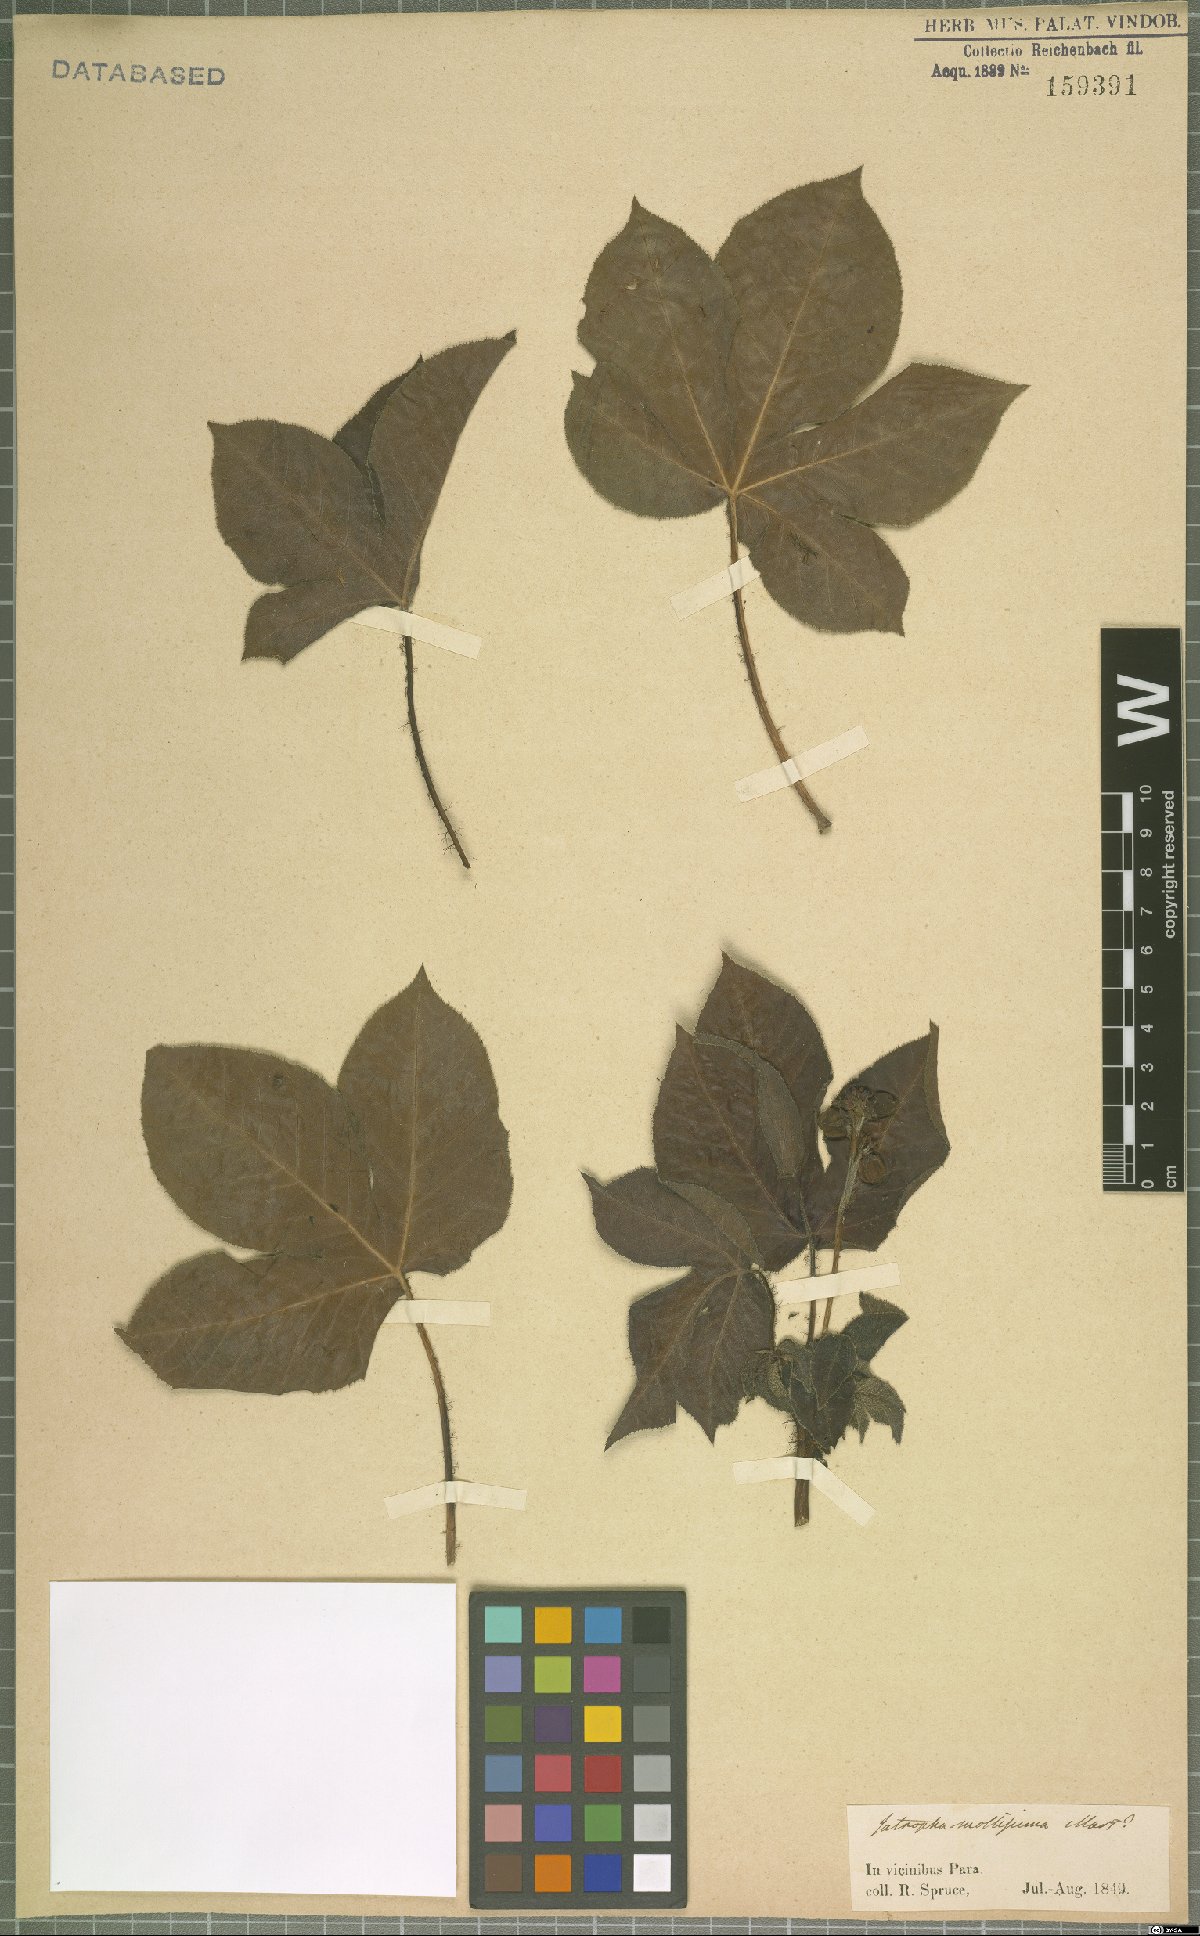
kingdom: Plantae
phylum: Tracheophyta
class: Magnoliopsida
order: Malpighiales
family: Euphorbiaceae
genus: Jatropha
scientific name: Jatropha mollissima
